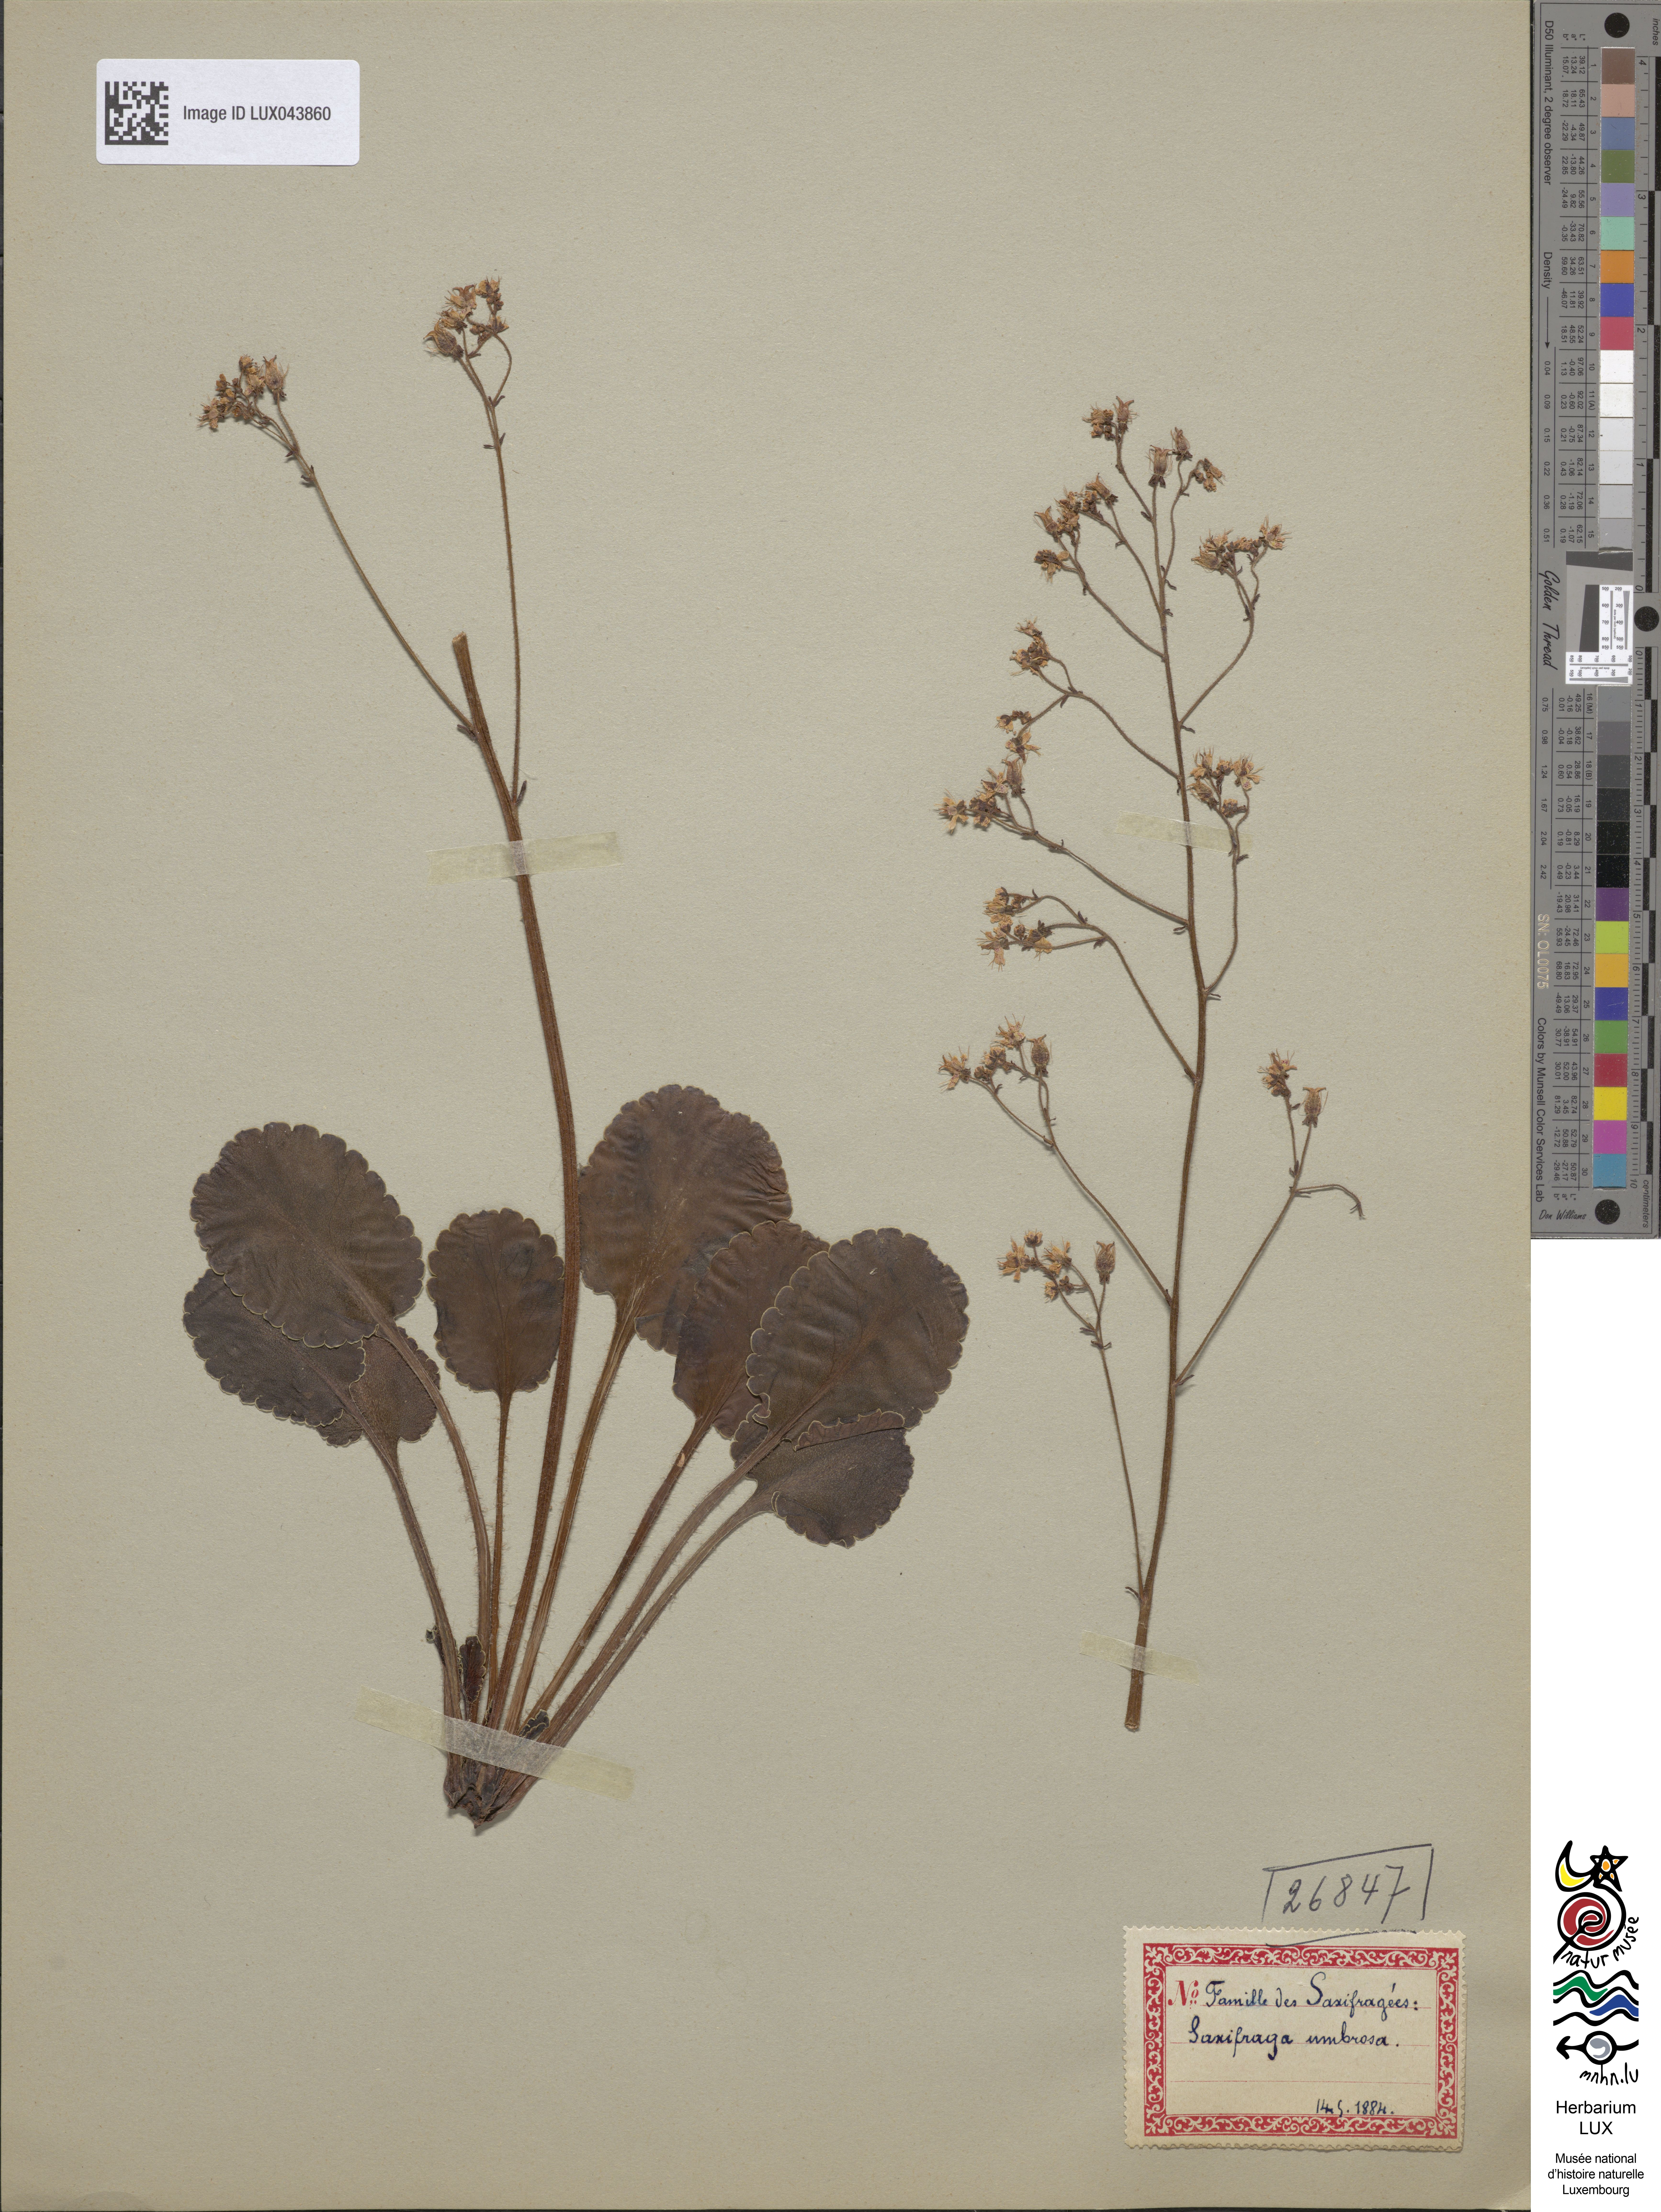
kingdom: Plantae
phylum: Tracheophyta
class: Magnoliopsida
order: Saxifragales
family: Saxifragaceae
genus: Saxifraga
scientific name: Saxifraga umbrosa
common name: Pyrenean saxifrage
